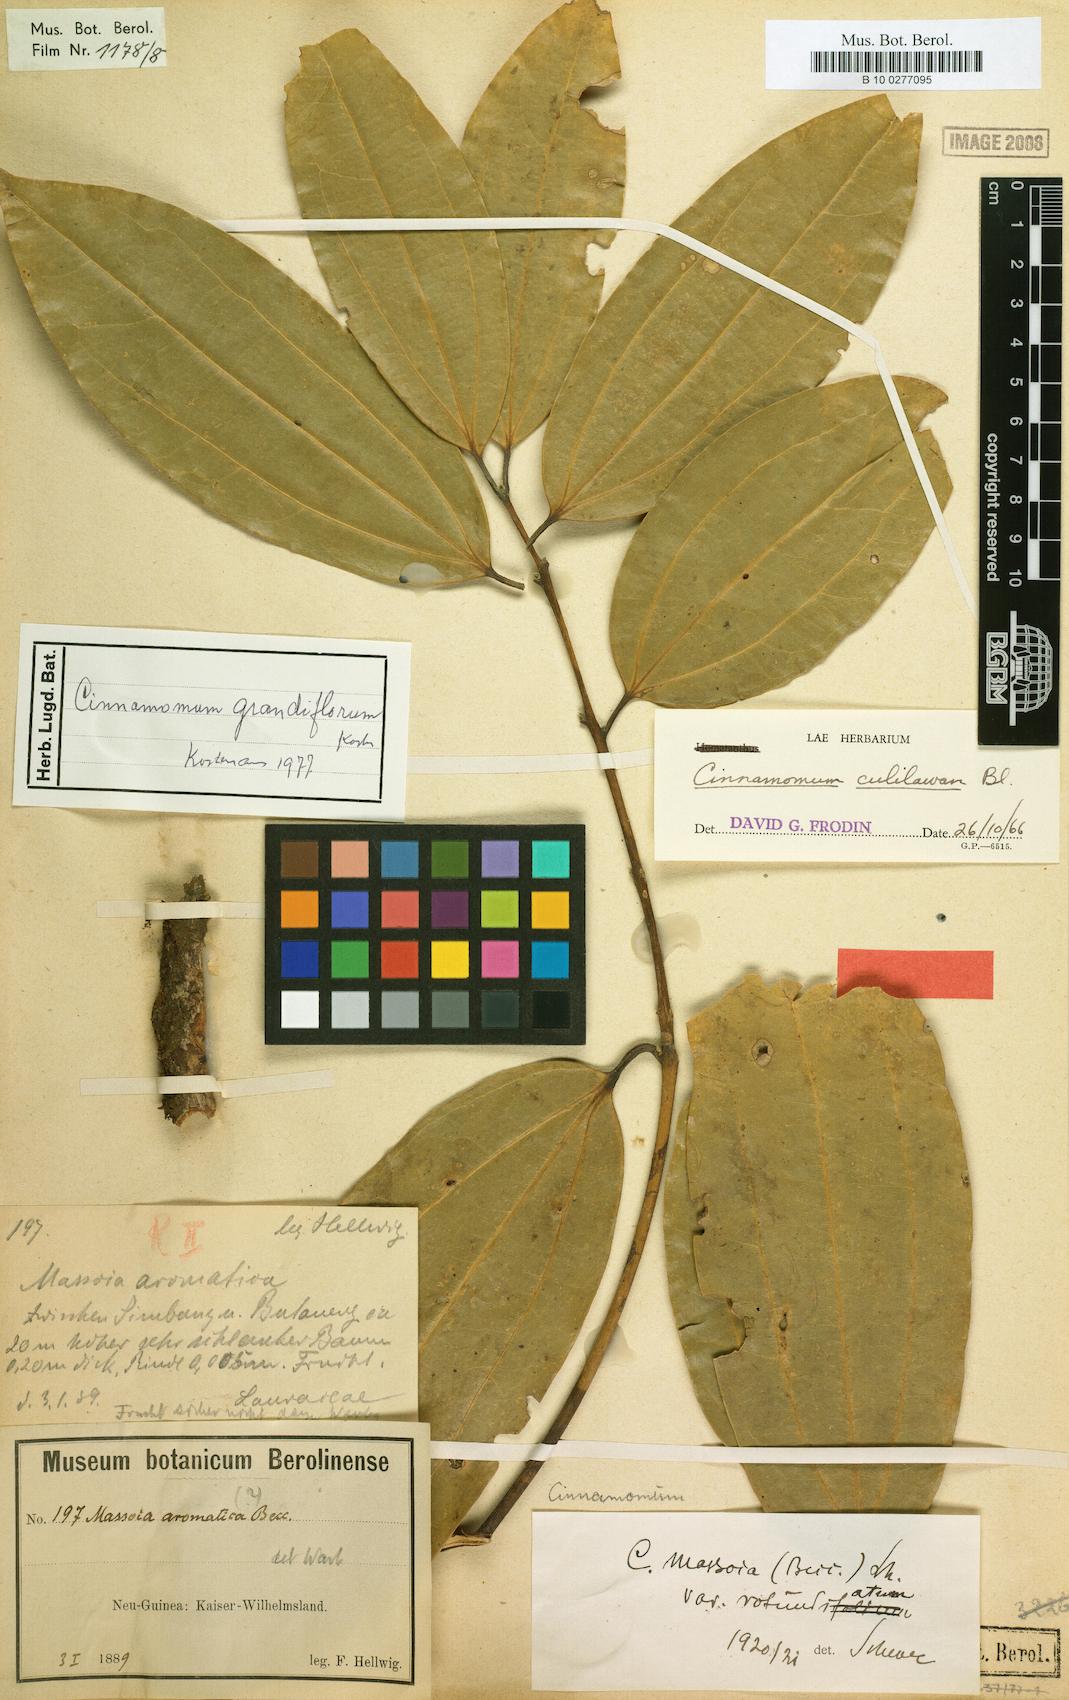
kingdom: Plantae
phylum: Tracheophyta
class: Magnoliopsida
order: Laurales
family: Lauraceae
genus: Cinnamomum
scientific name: Cinnamomum grandiflorum
